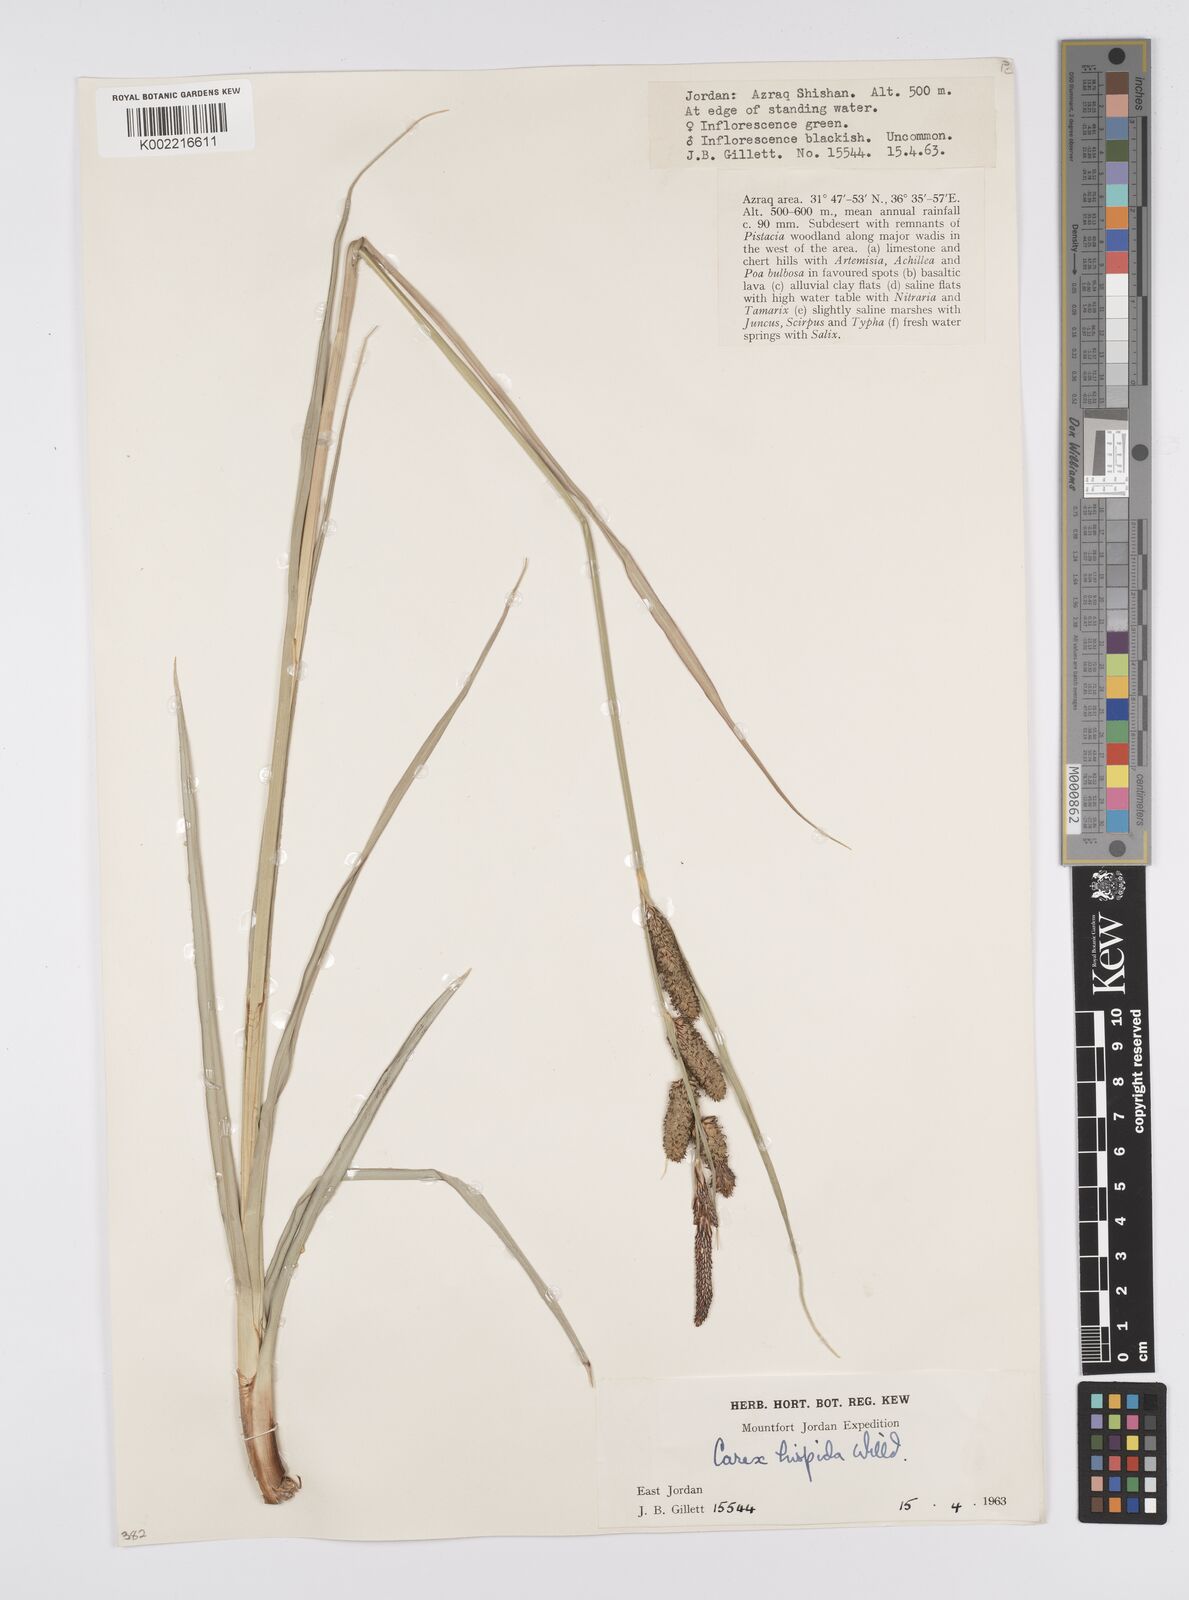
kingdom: Plantae
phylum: Tracheophyta
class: Liliopsida
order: Poales
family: Cyperaceae
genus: Carex
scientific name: Carex hispida
